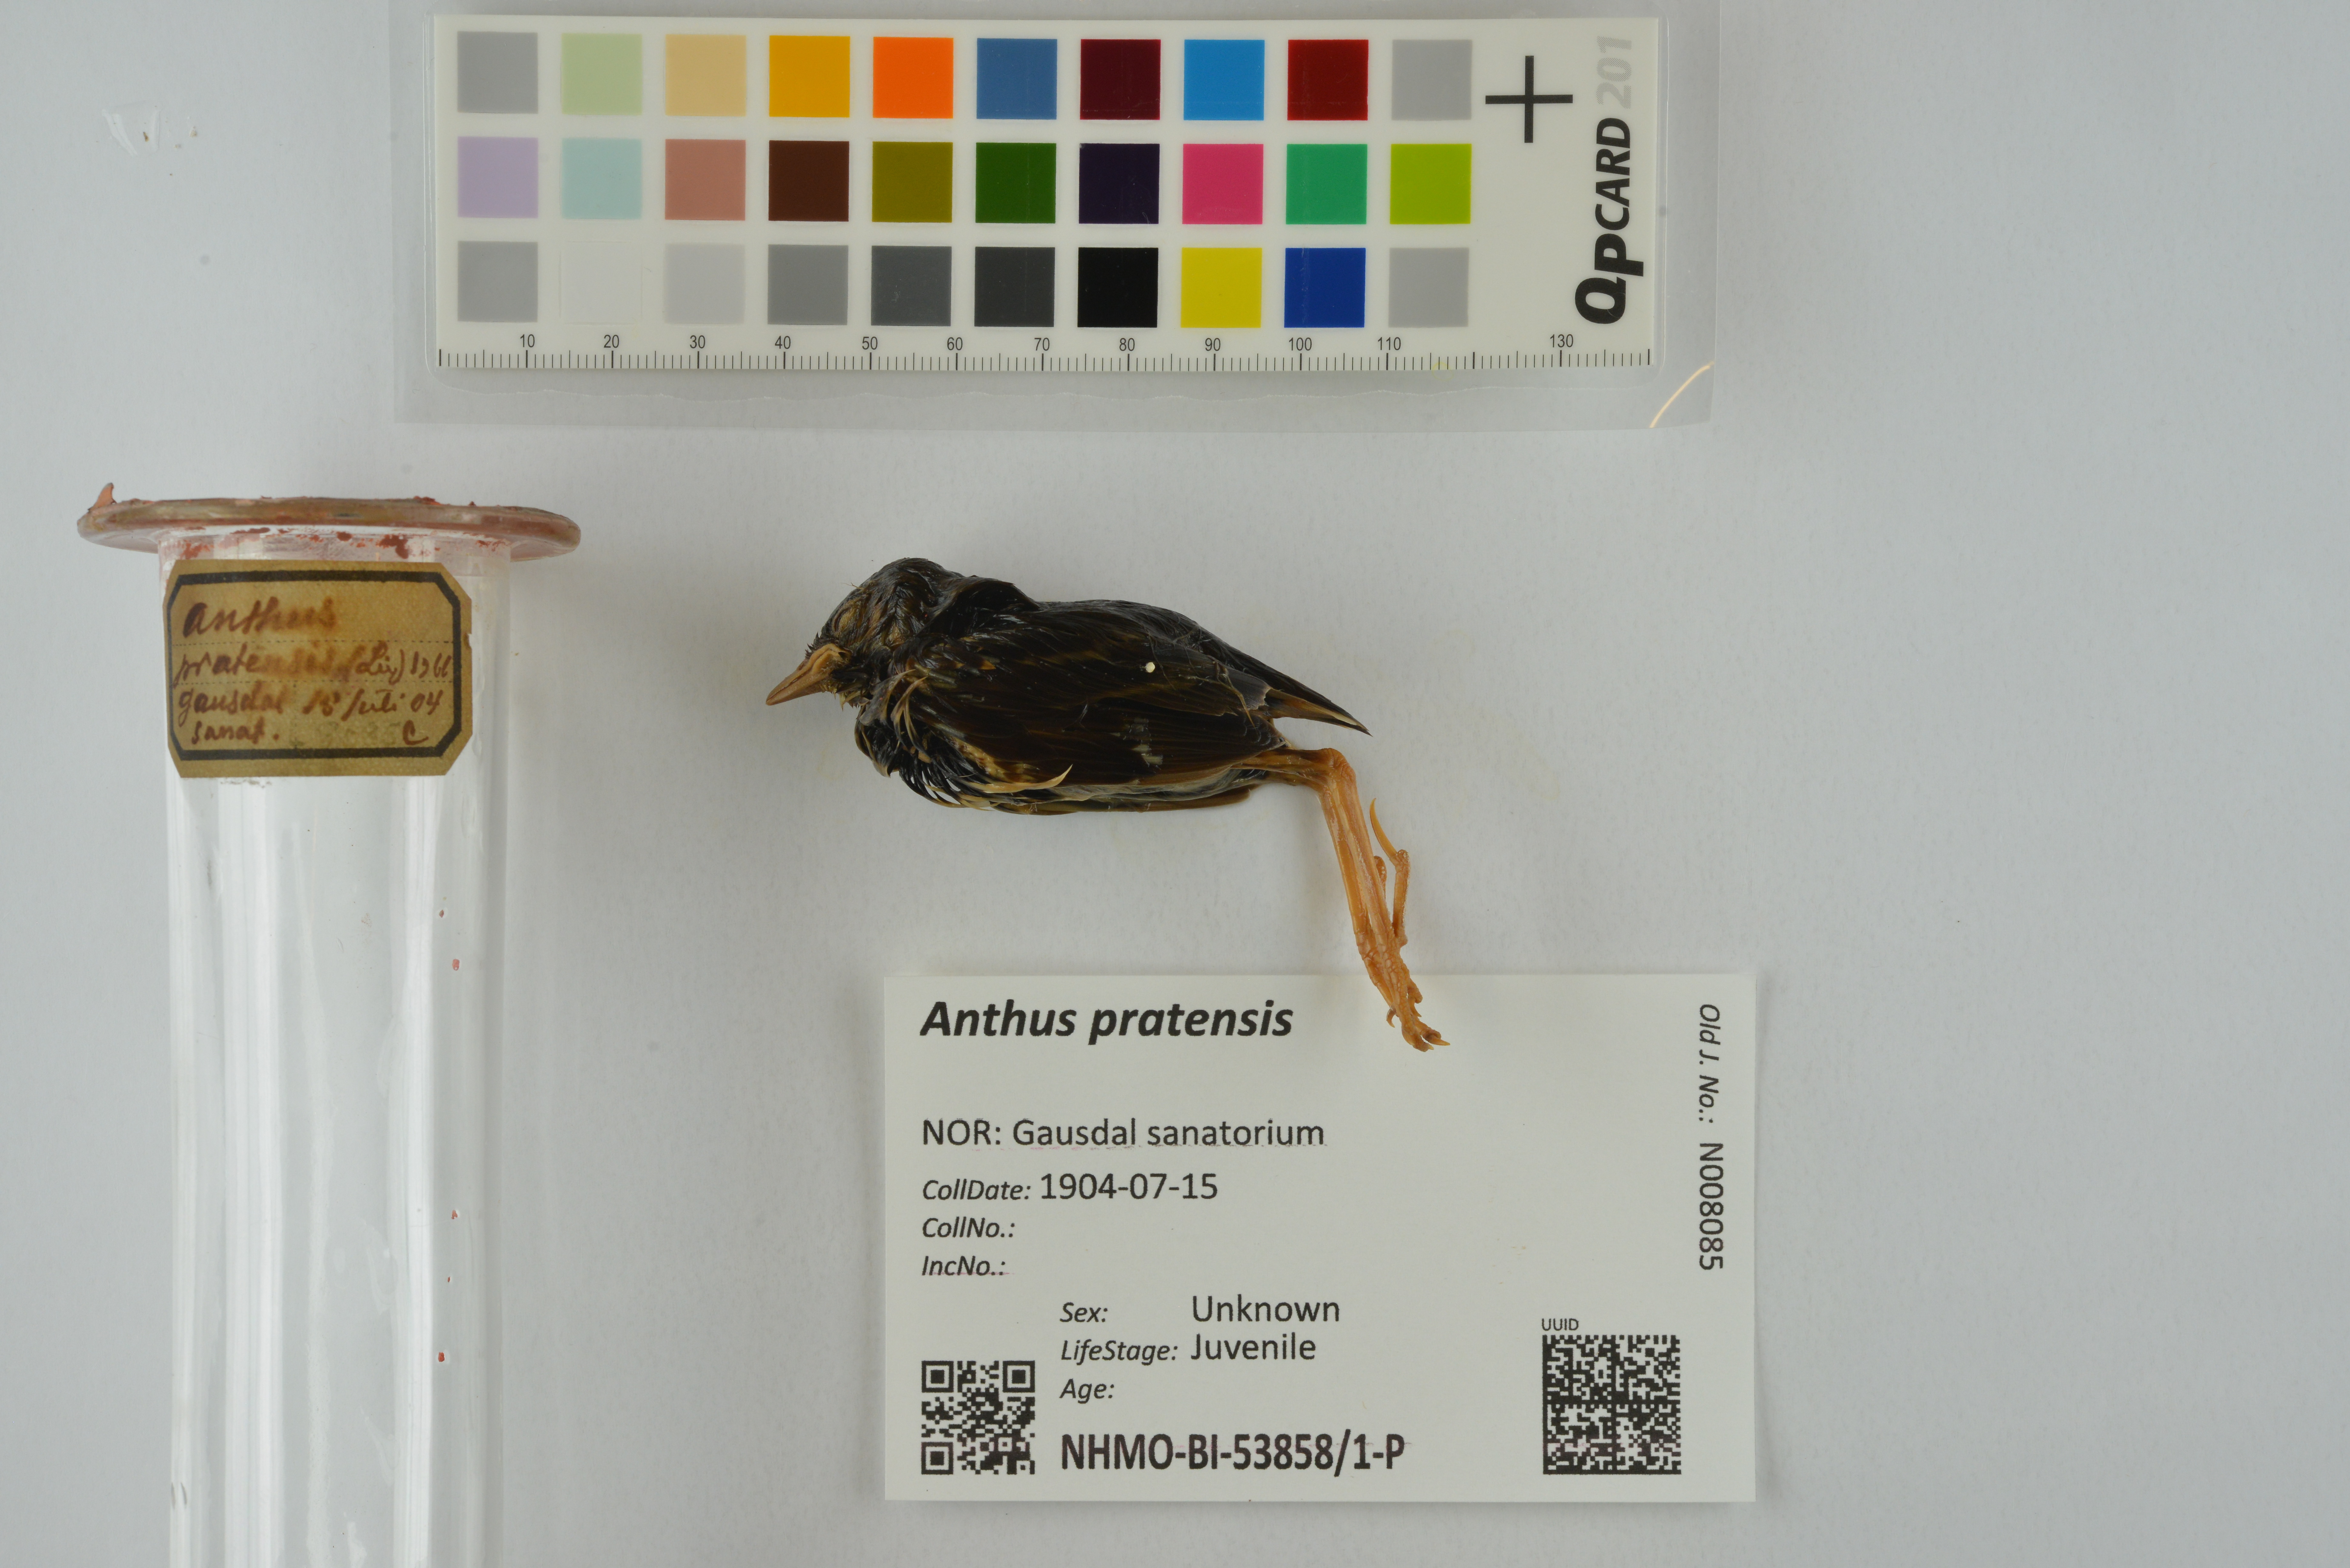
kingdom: Animalia
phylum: Chordata
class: Aves
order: Passeriformes
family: Motacillidae
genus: Anthus
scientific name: Anthus pratensis
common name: Meadow pipit
